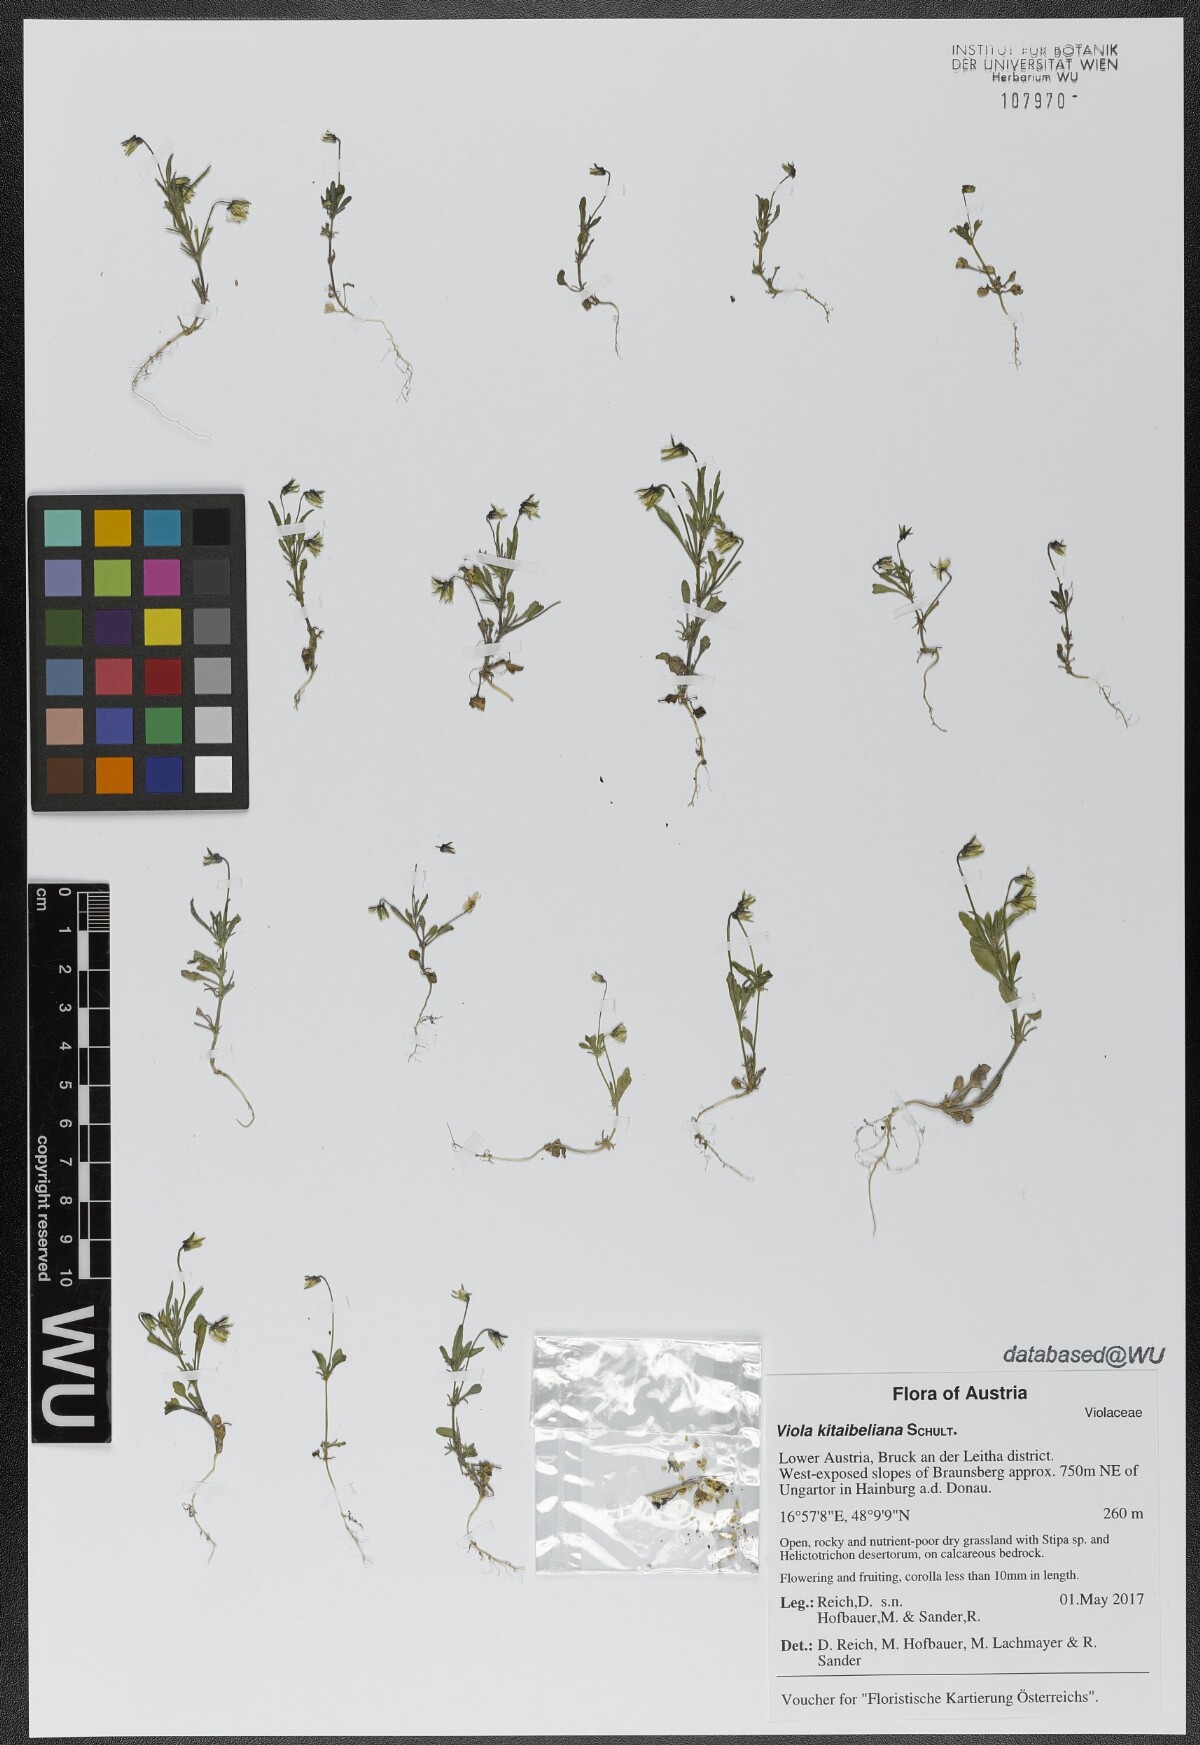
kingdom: Plantae
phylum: Tracheophyta
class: Magnoliopsida
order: Malpighiales
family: Violaceae
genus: Viola
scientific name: Viola kitaibeliana
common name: Dwarf pansy
